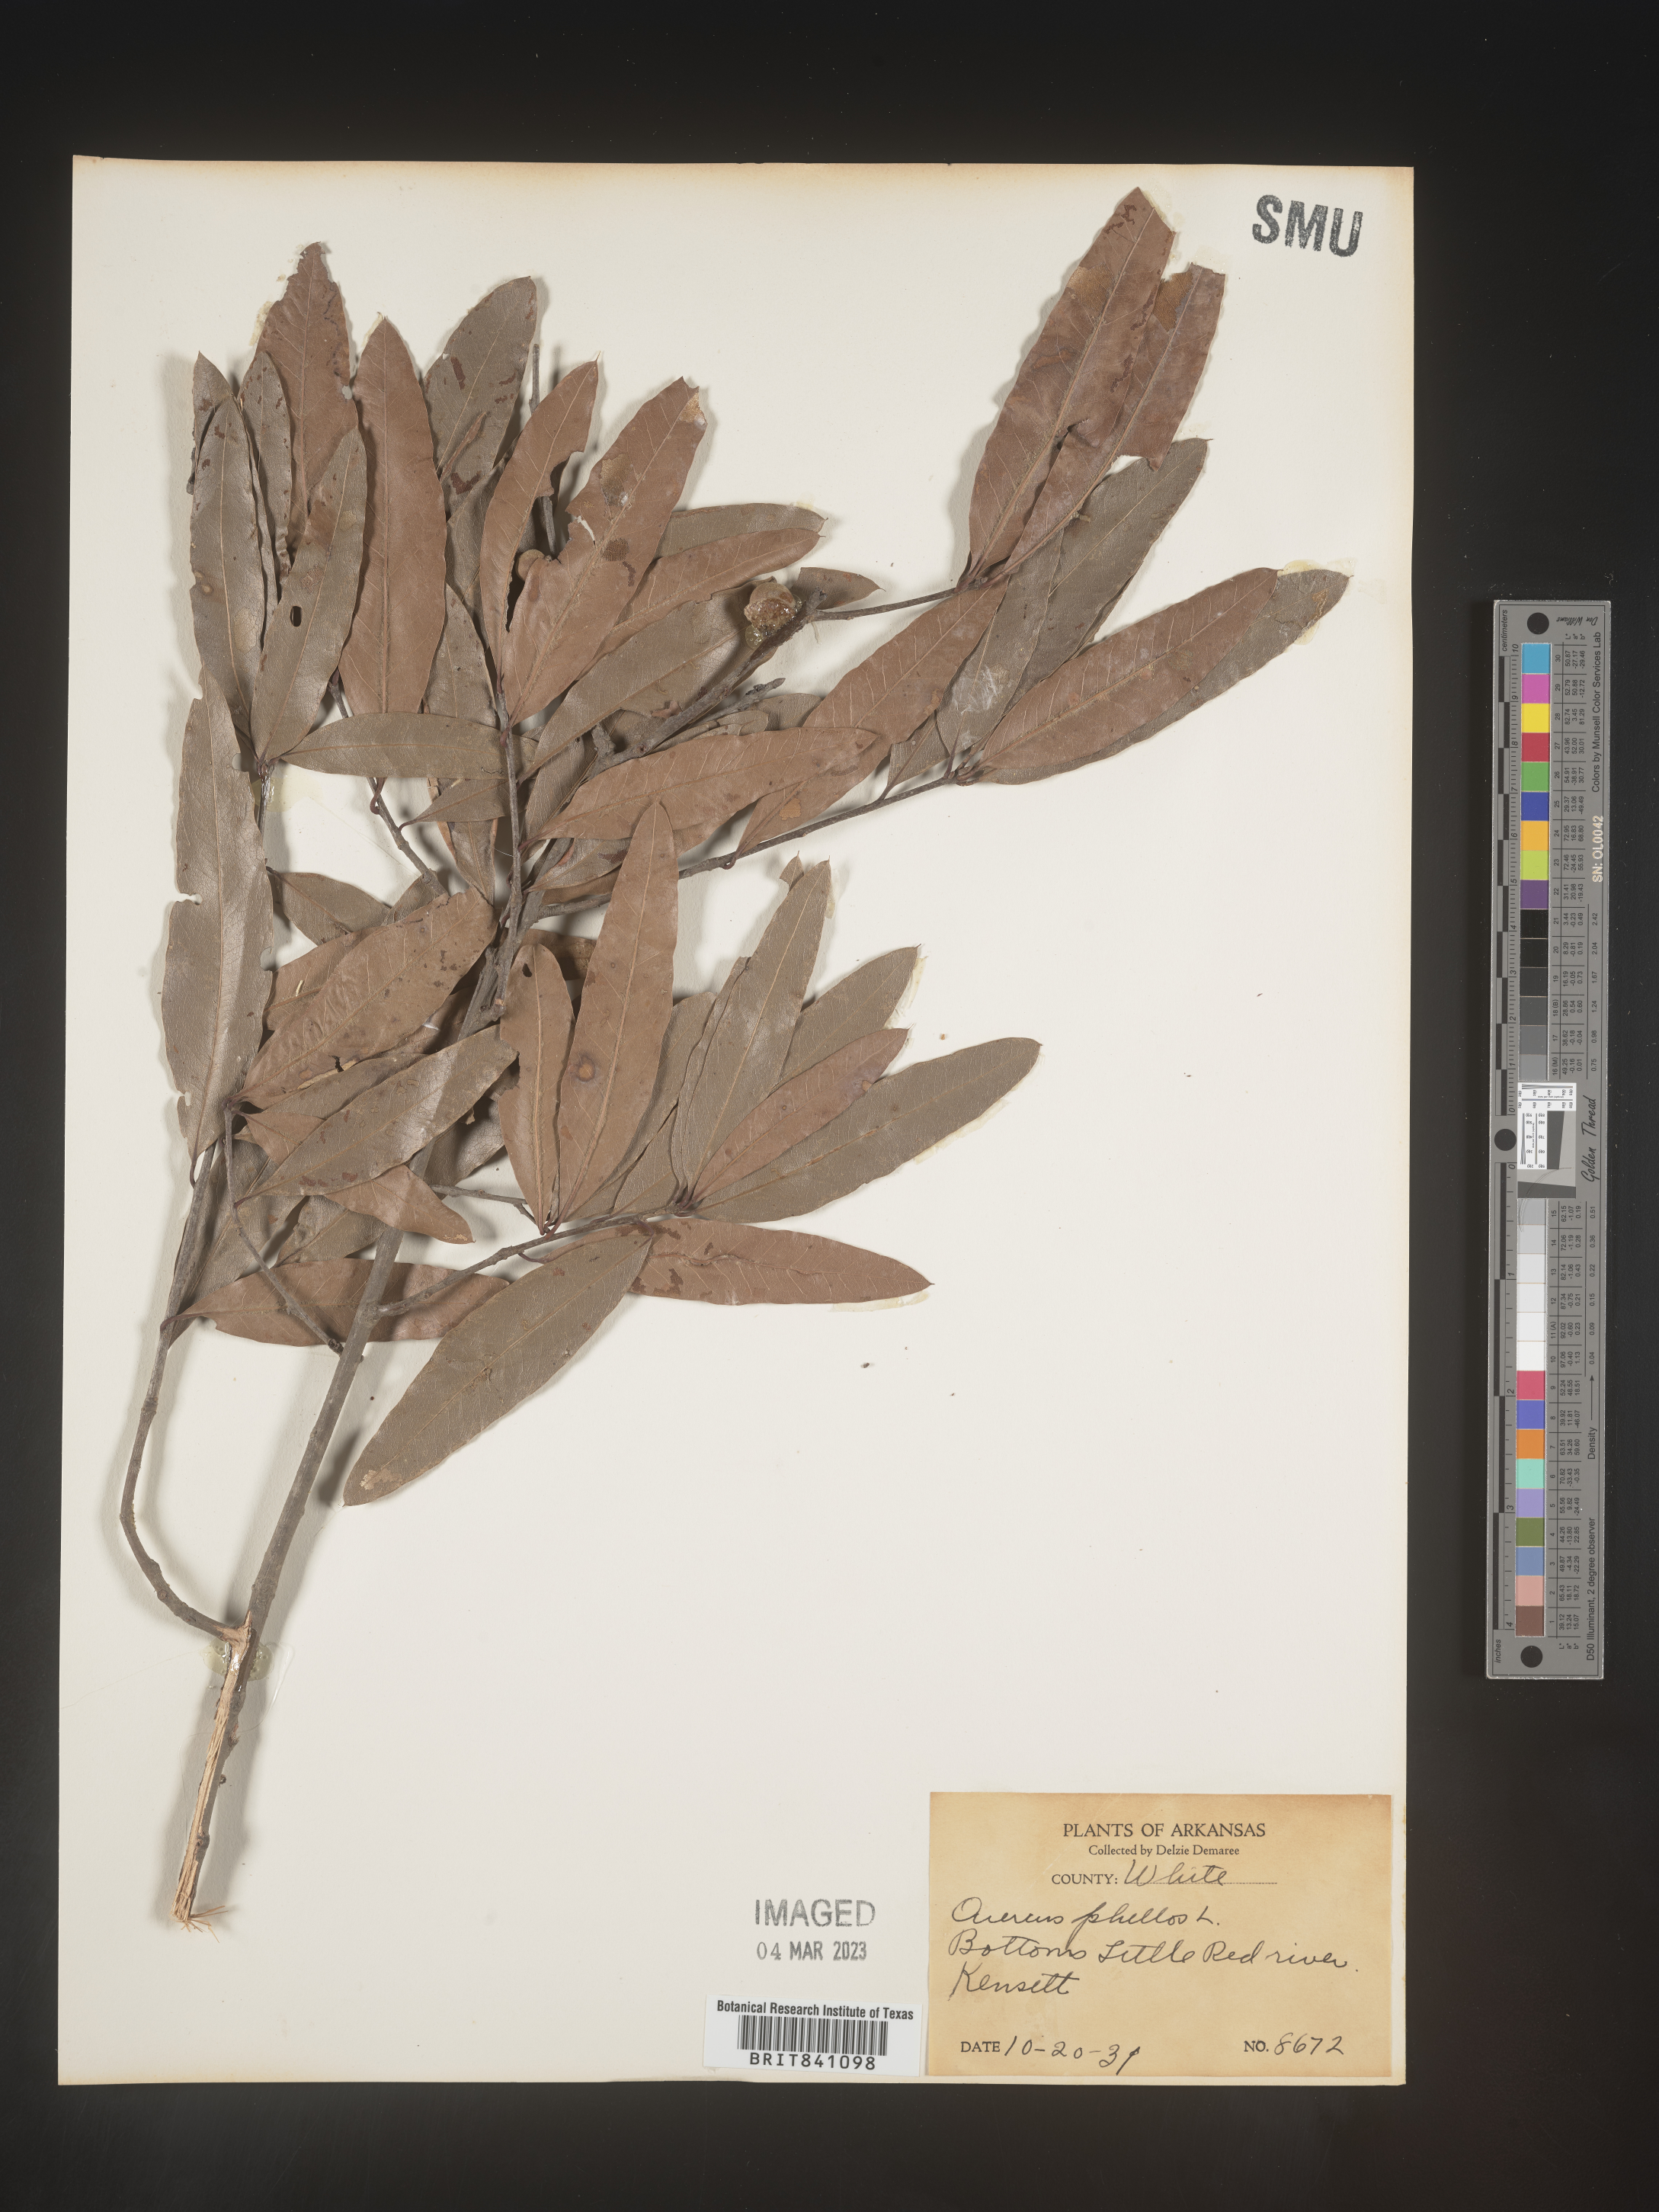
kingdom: Plantae
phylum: Tracheophyta
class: Magnoliopsida
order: Fagales
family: Fagaceae
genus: Quercus
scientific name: Quercus phellos
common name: Willow oak
